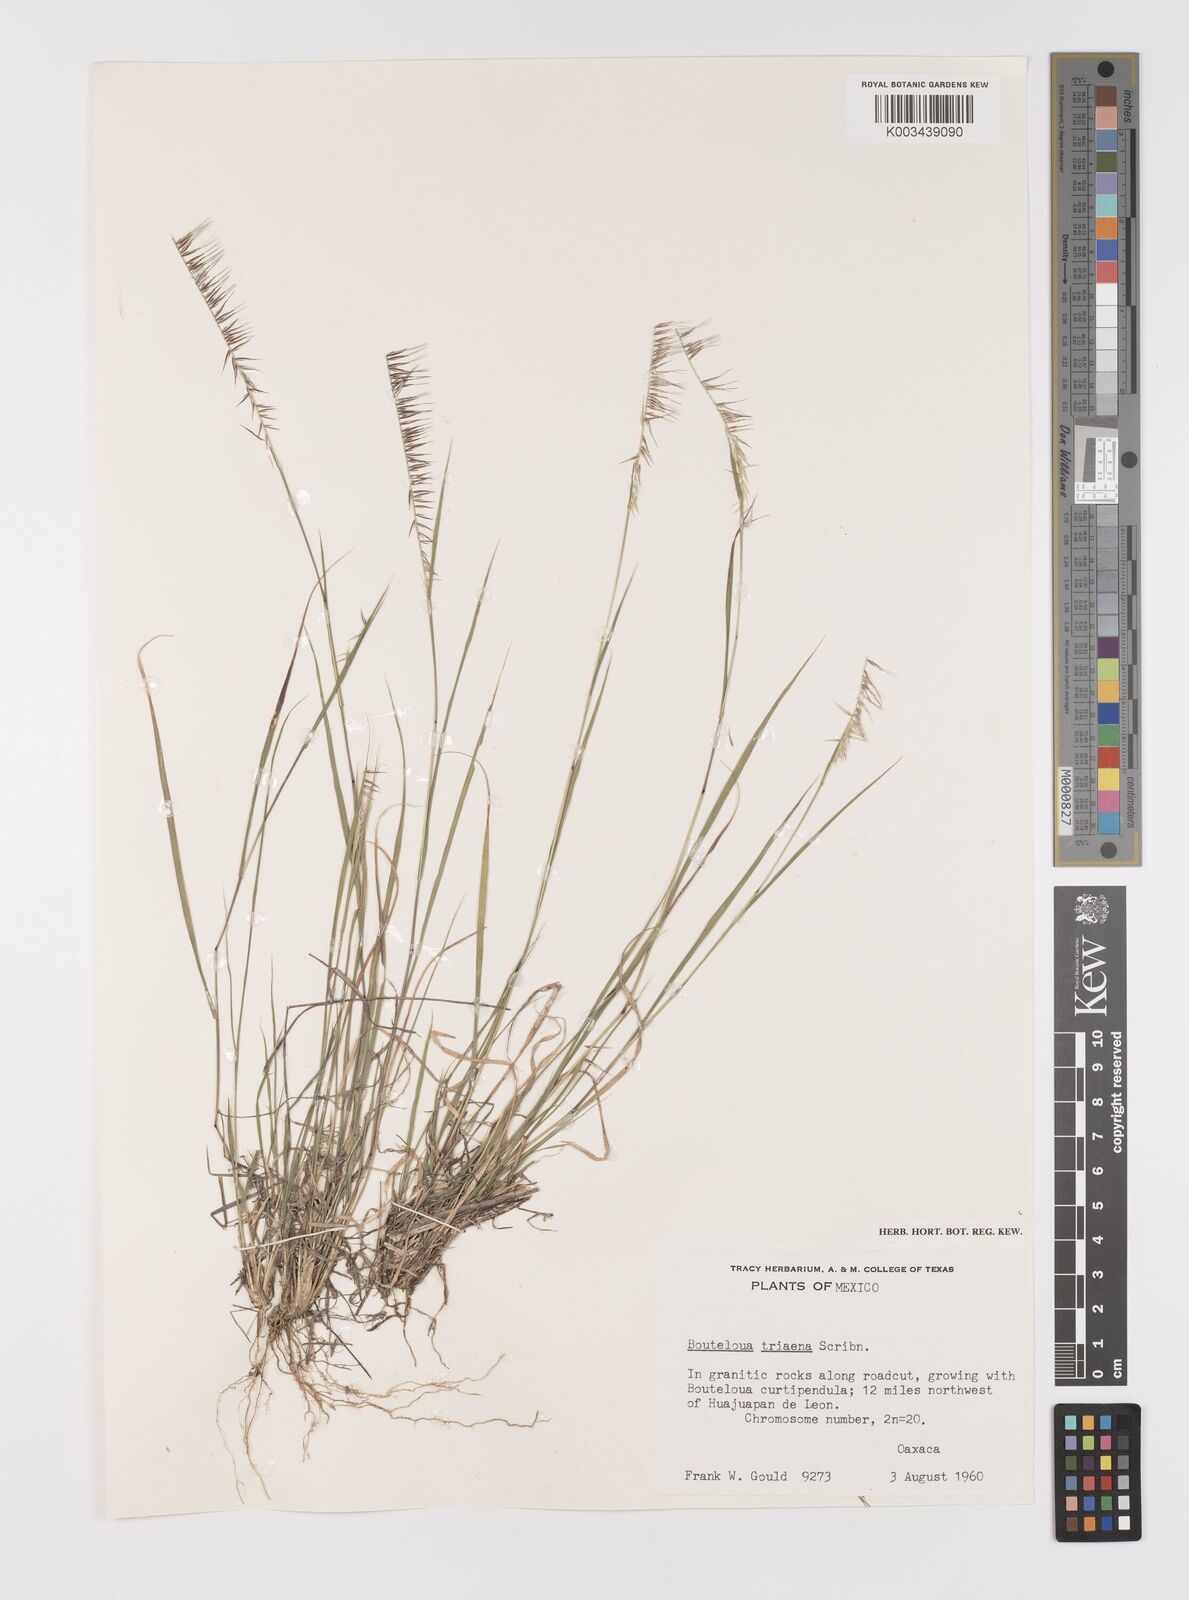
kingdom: Plantae
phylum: Tracheophyta
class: Liliopsida
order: Poales
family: Poaceae
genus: Bouteloua
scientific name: Bouteloua triaena
